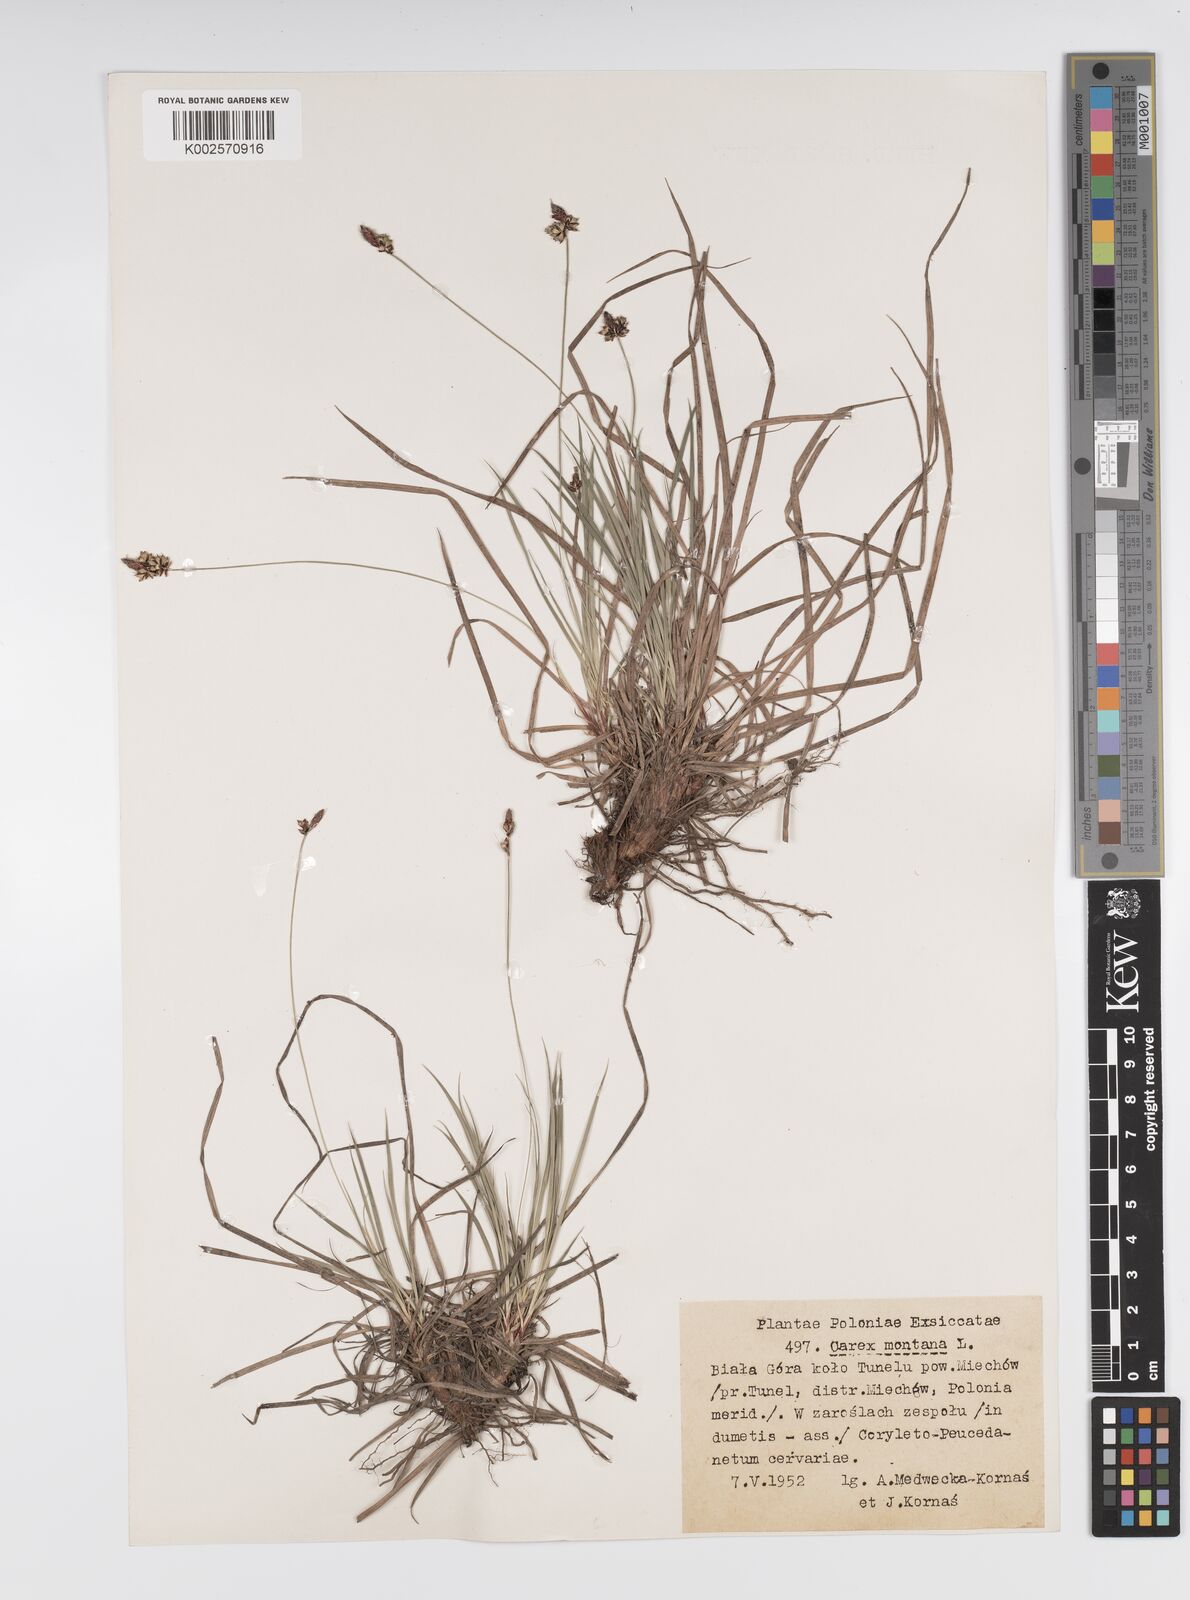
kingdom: Plantae
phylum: Tracheophyta
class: Liliopsida
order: Poales
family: Cyperaceae
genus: Carex
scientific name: Carex montana
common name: Soft-leaved sedge
